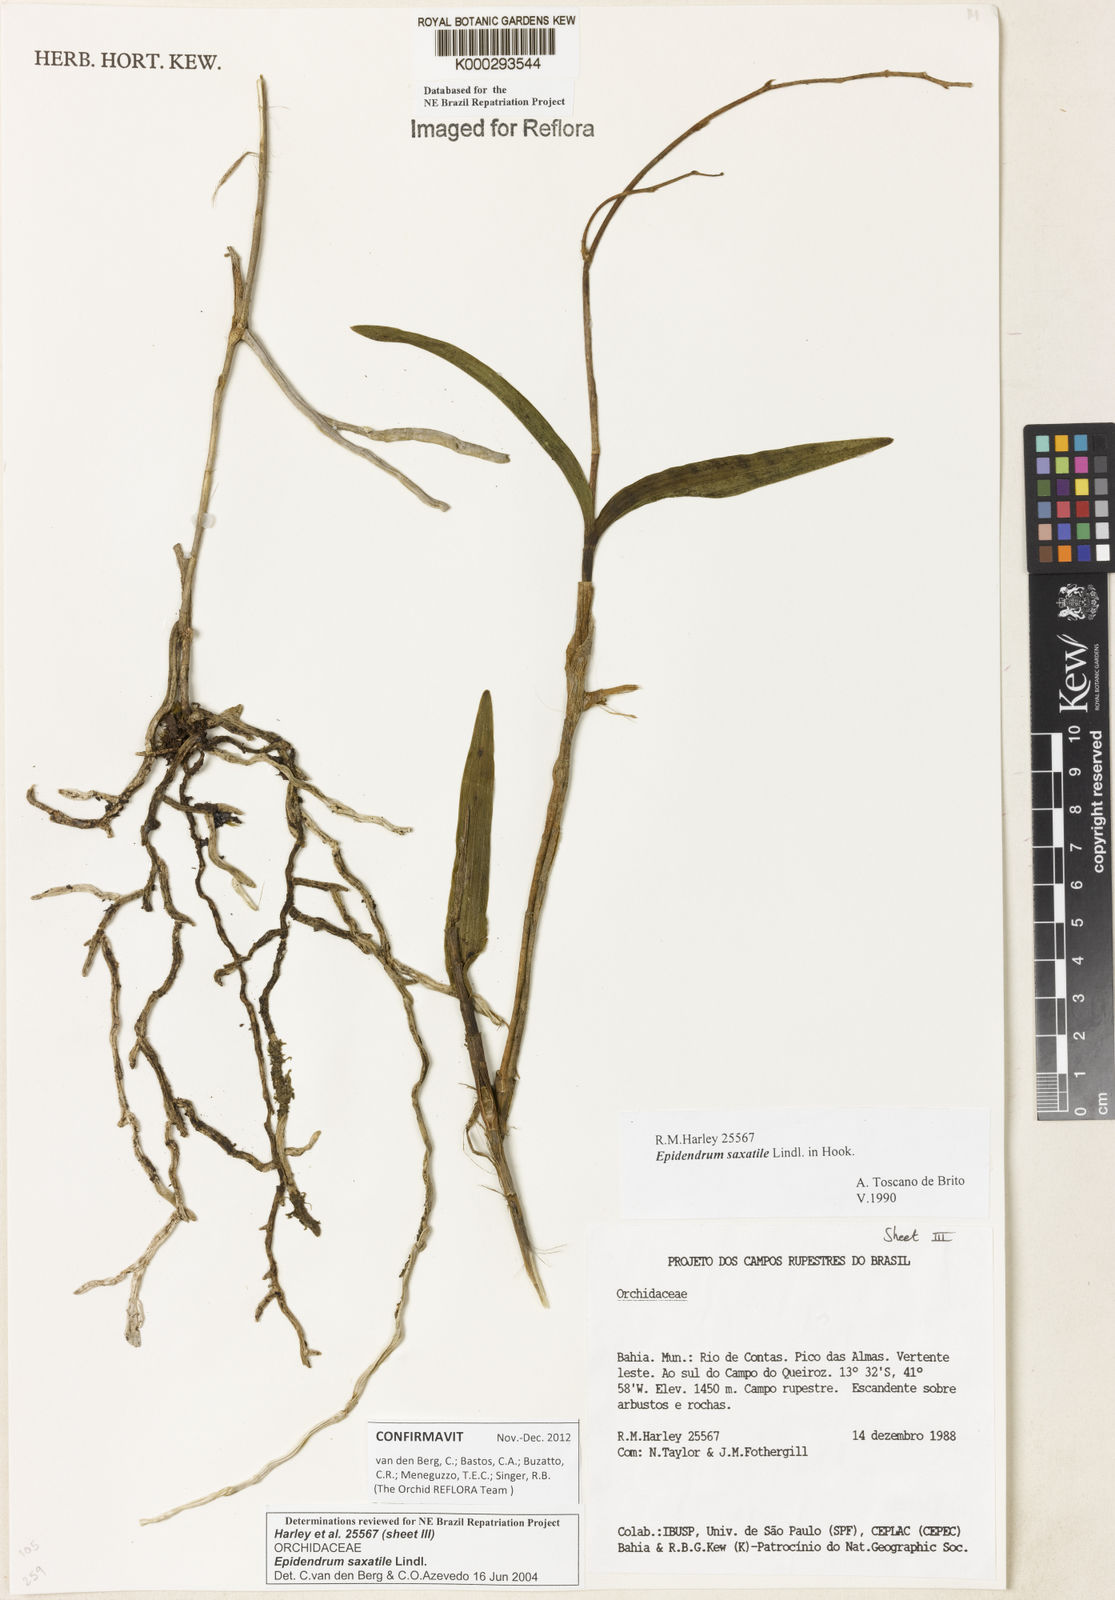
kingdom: Plantae
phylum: Tracheophyta
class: Liliopsida
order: Asparagales
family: Orchidaceae
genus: Epidendrum
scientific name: Epidendrum saxatile
